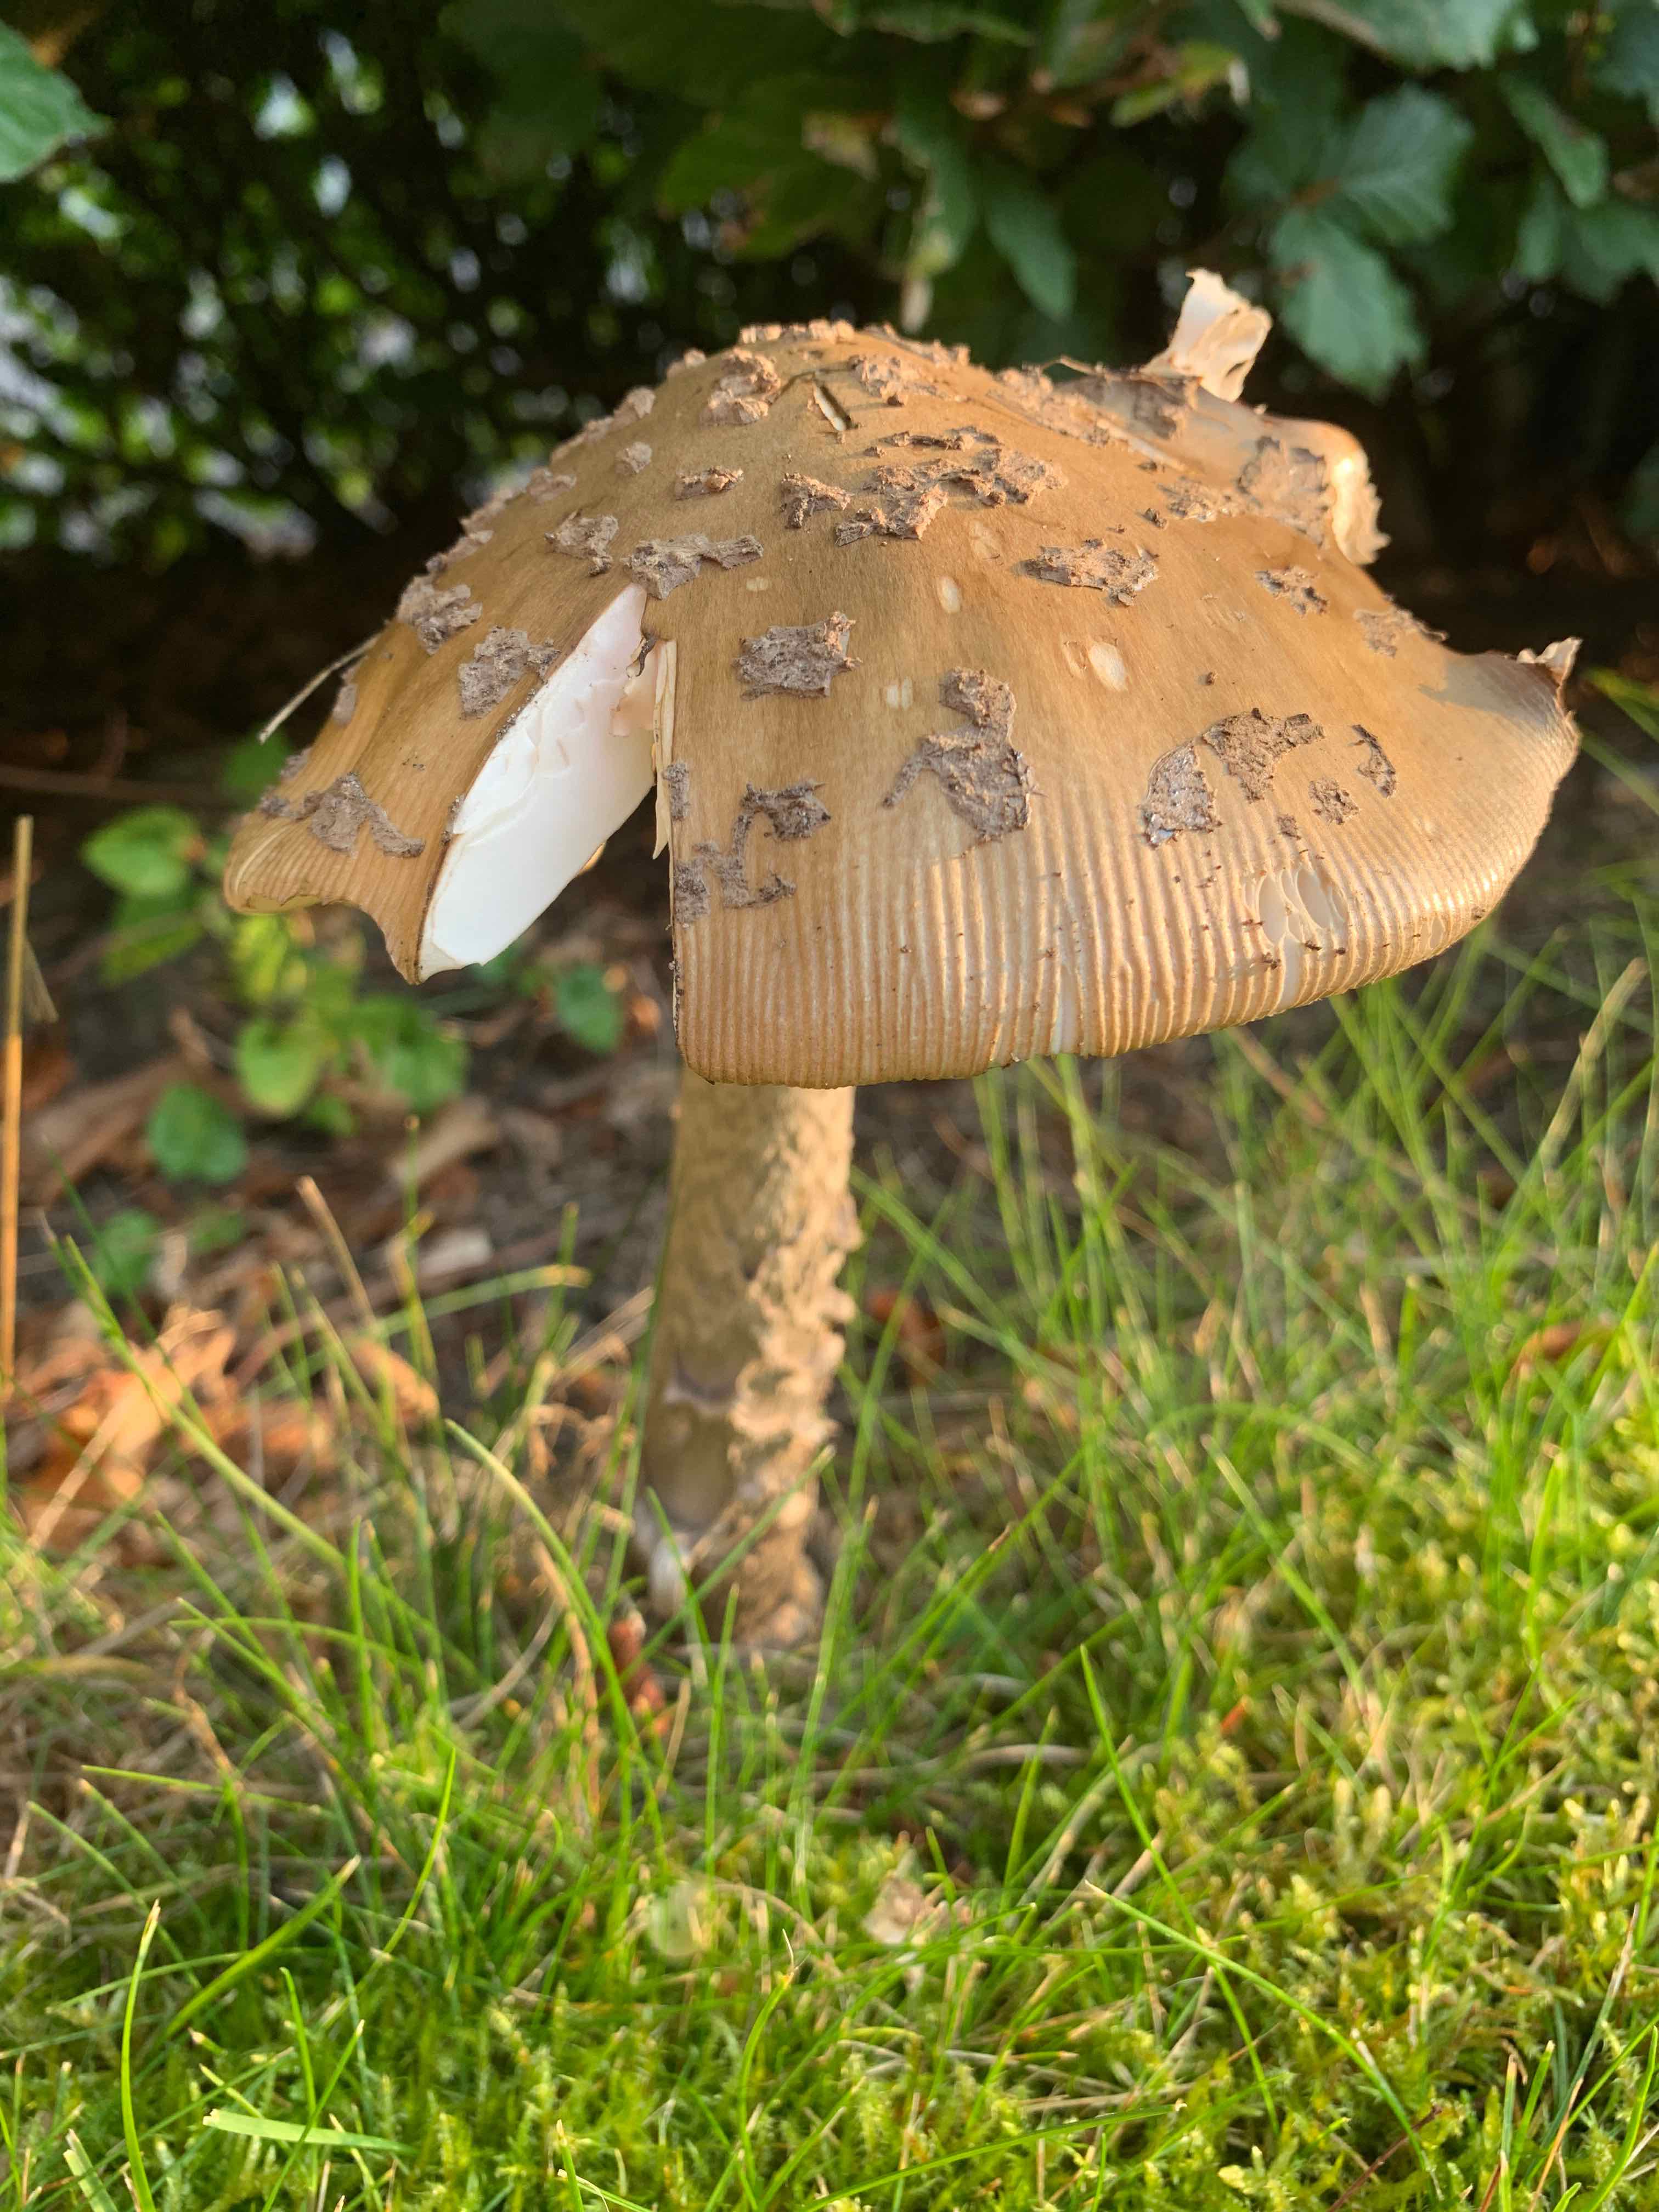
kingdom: Fungi
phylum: Basidiomycota
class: Agaricomycetes
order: Agaricales
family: Amanitaceae
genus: Amanita
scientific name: Amanita ceciliae
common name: stor kam-fluesvamp
